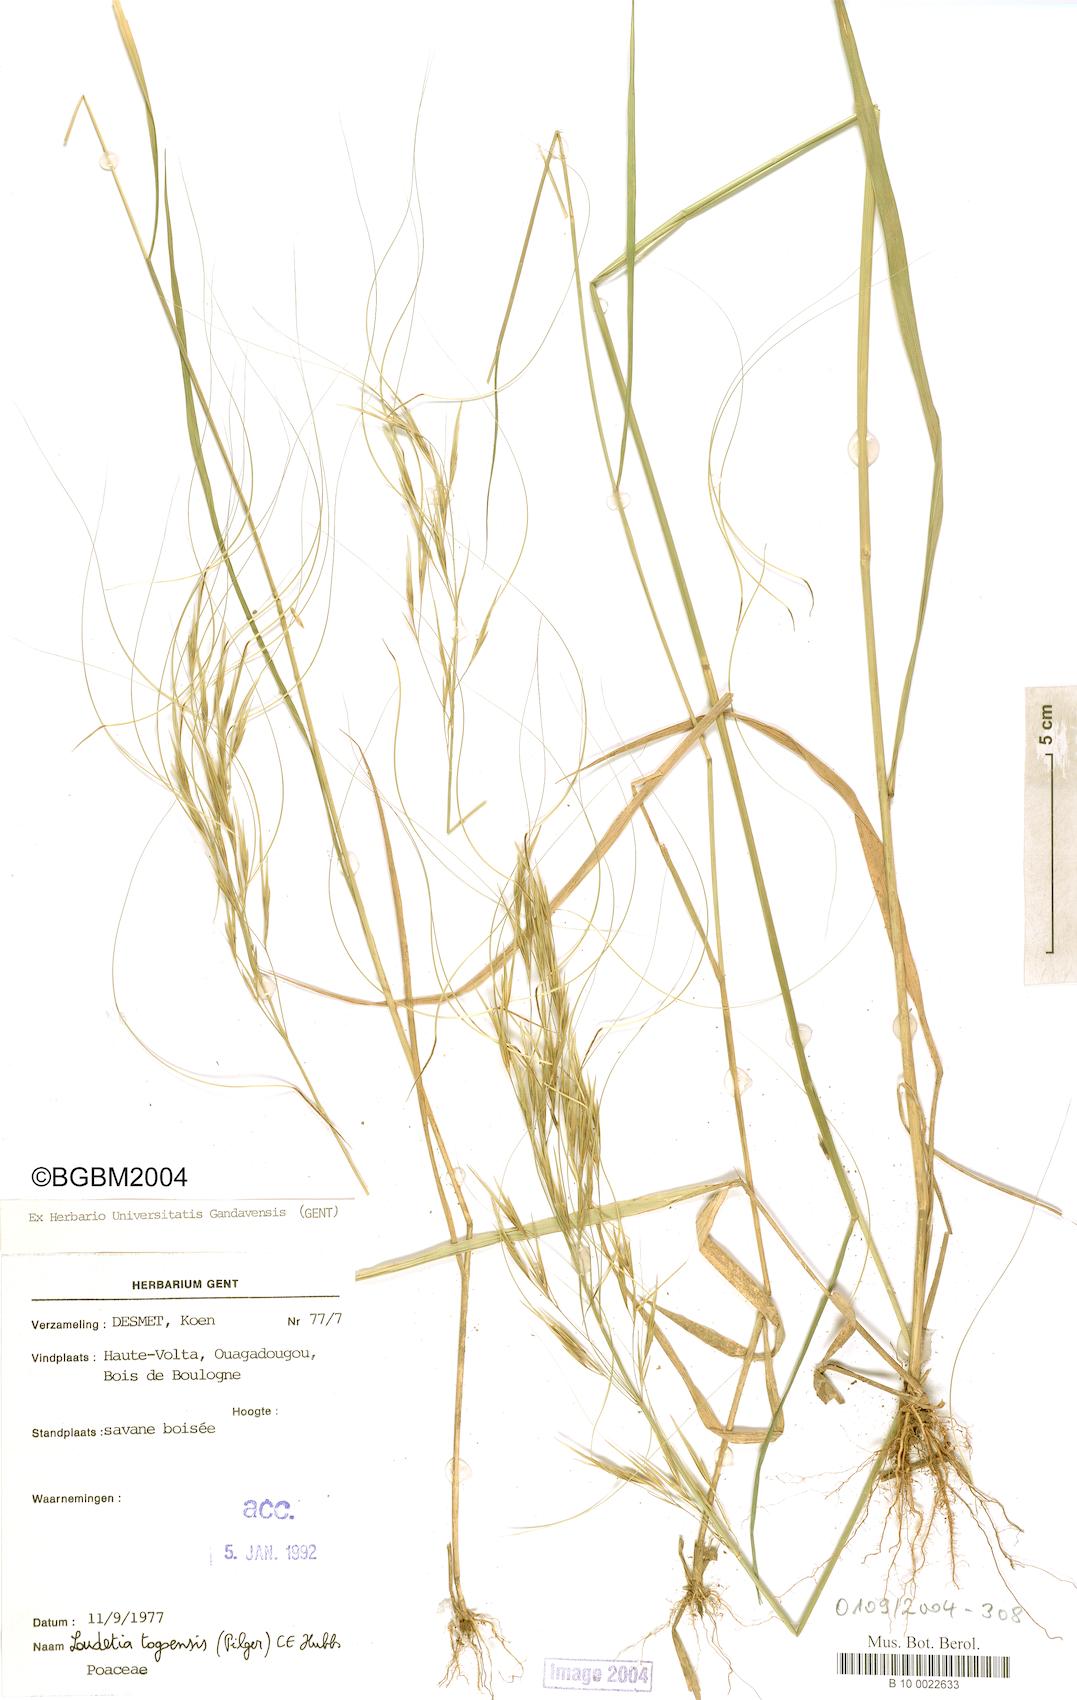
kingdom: Plantae
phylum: Tracheophyta
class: Liliopsida
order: Poales
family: Poaceae
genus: Loudetia
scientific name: Loudetia togoensis
